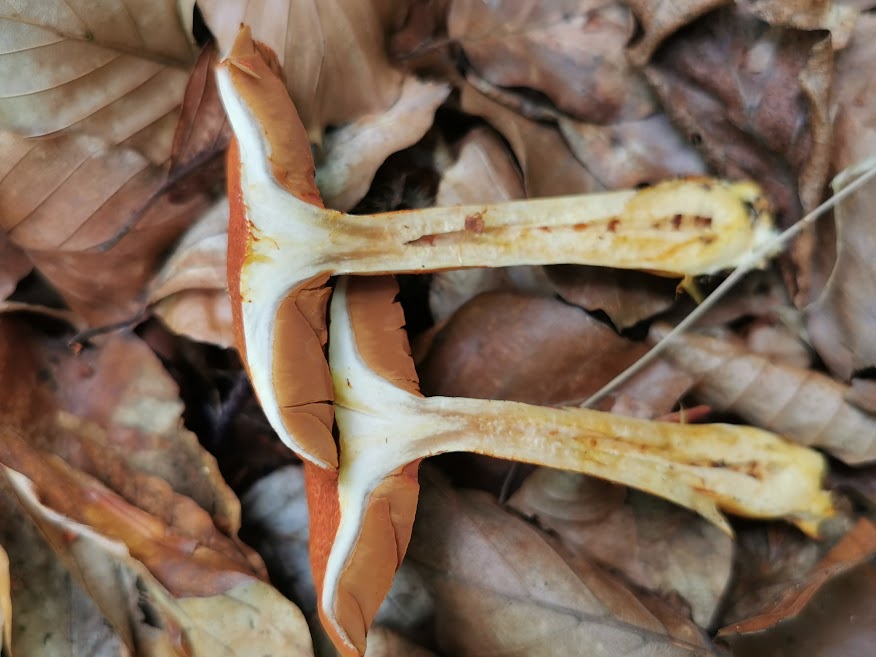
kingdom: Fungi
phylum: Basidiomycota
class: Agaricomycetes
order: Agaricales
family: Cortinariaceae
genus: Cortinarius
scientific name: Cortinarius bolaris
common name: cinnoberskællet slørhat
